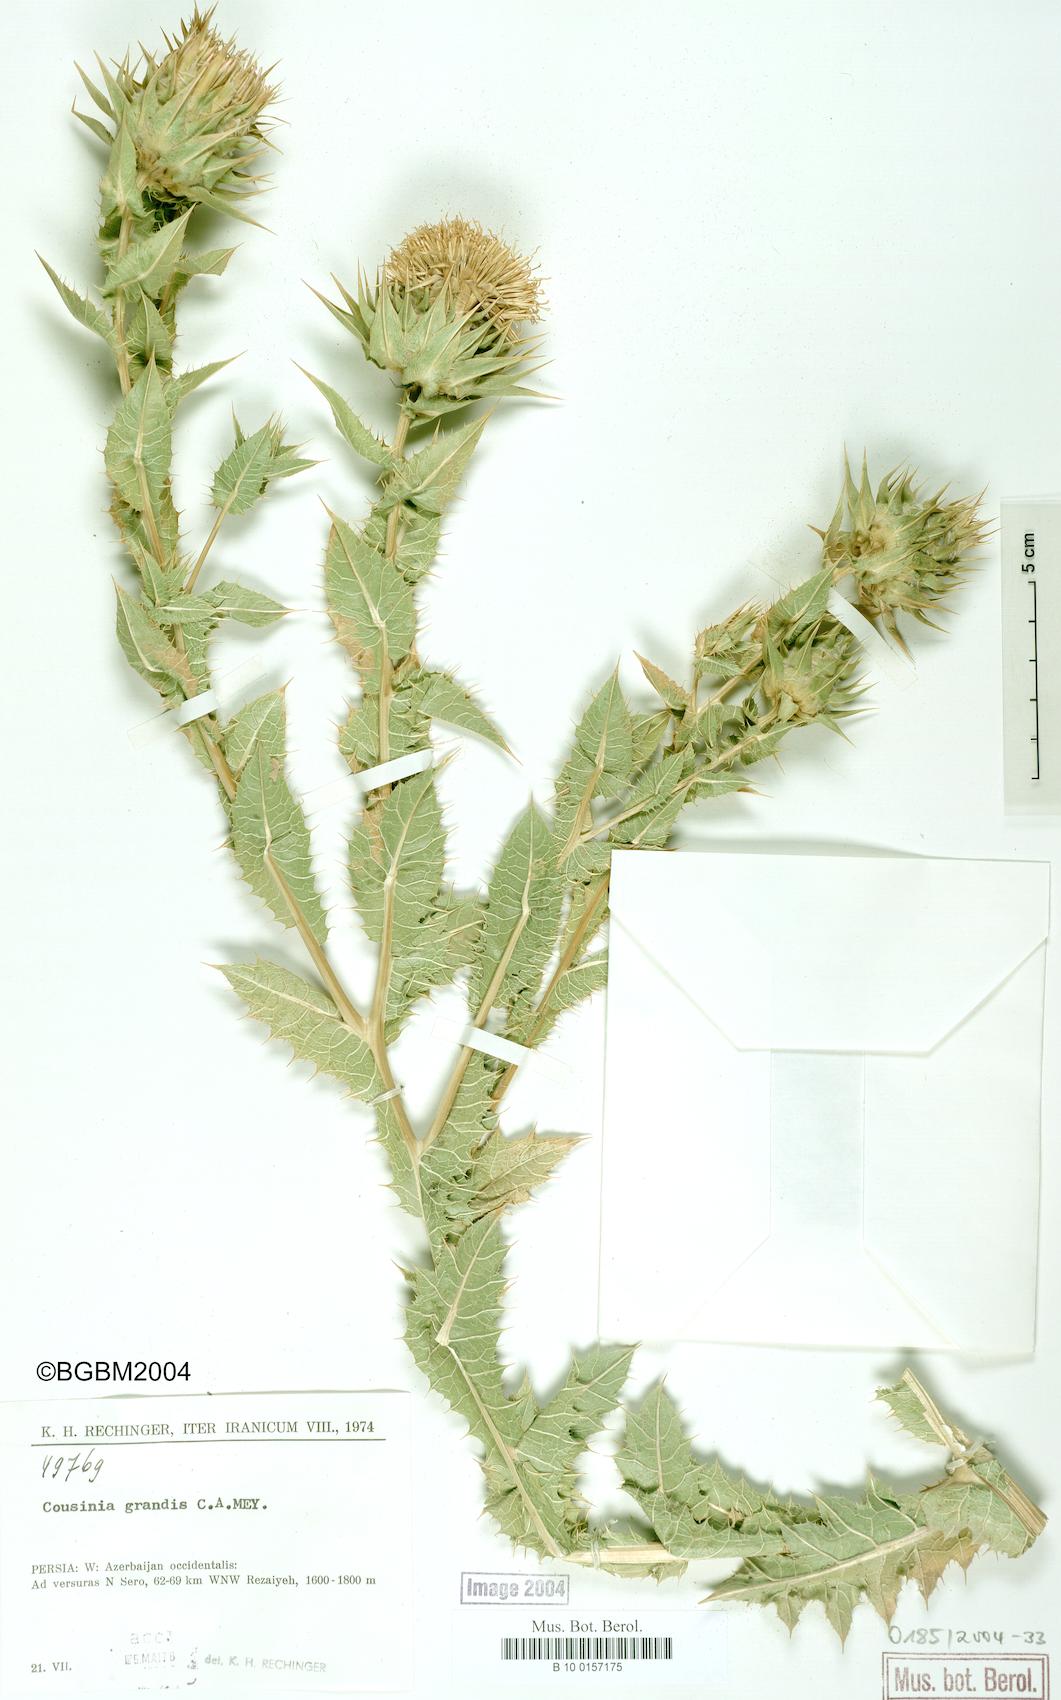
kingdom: Plantae
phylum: Tracheophyta
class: Magnoliopsida
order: Asterales
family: Asteraceae
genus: Cousinia
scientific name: Cousinia grandis
